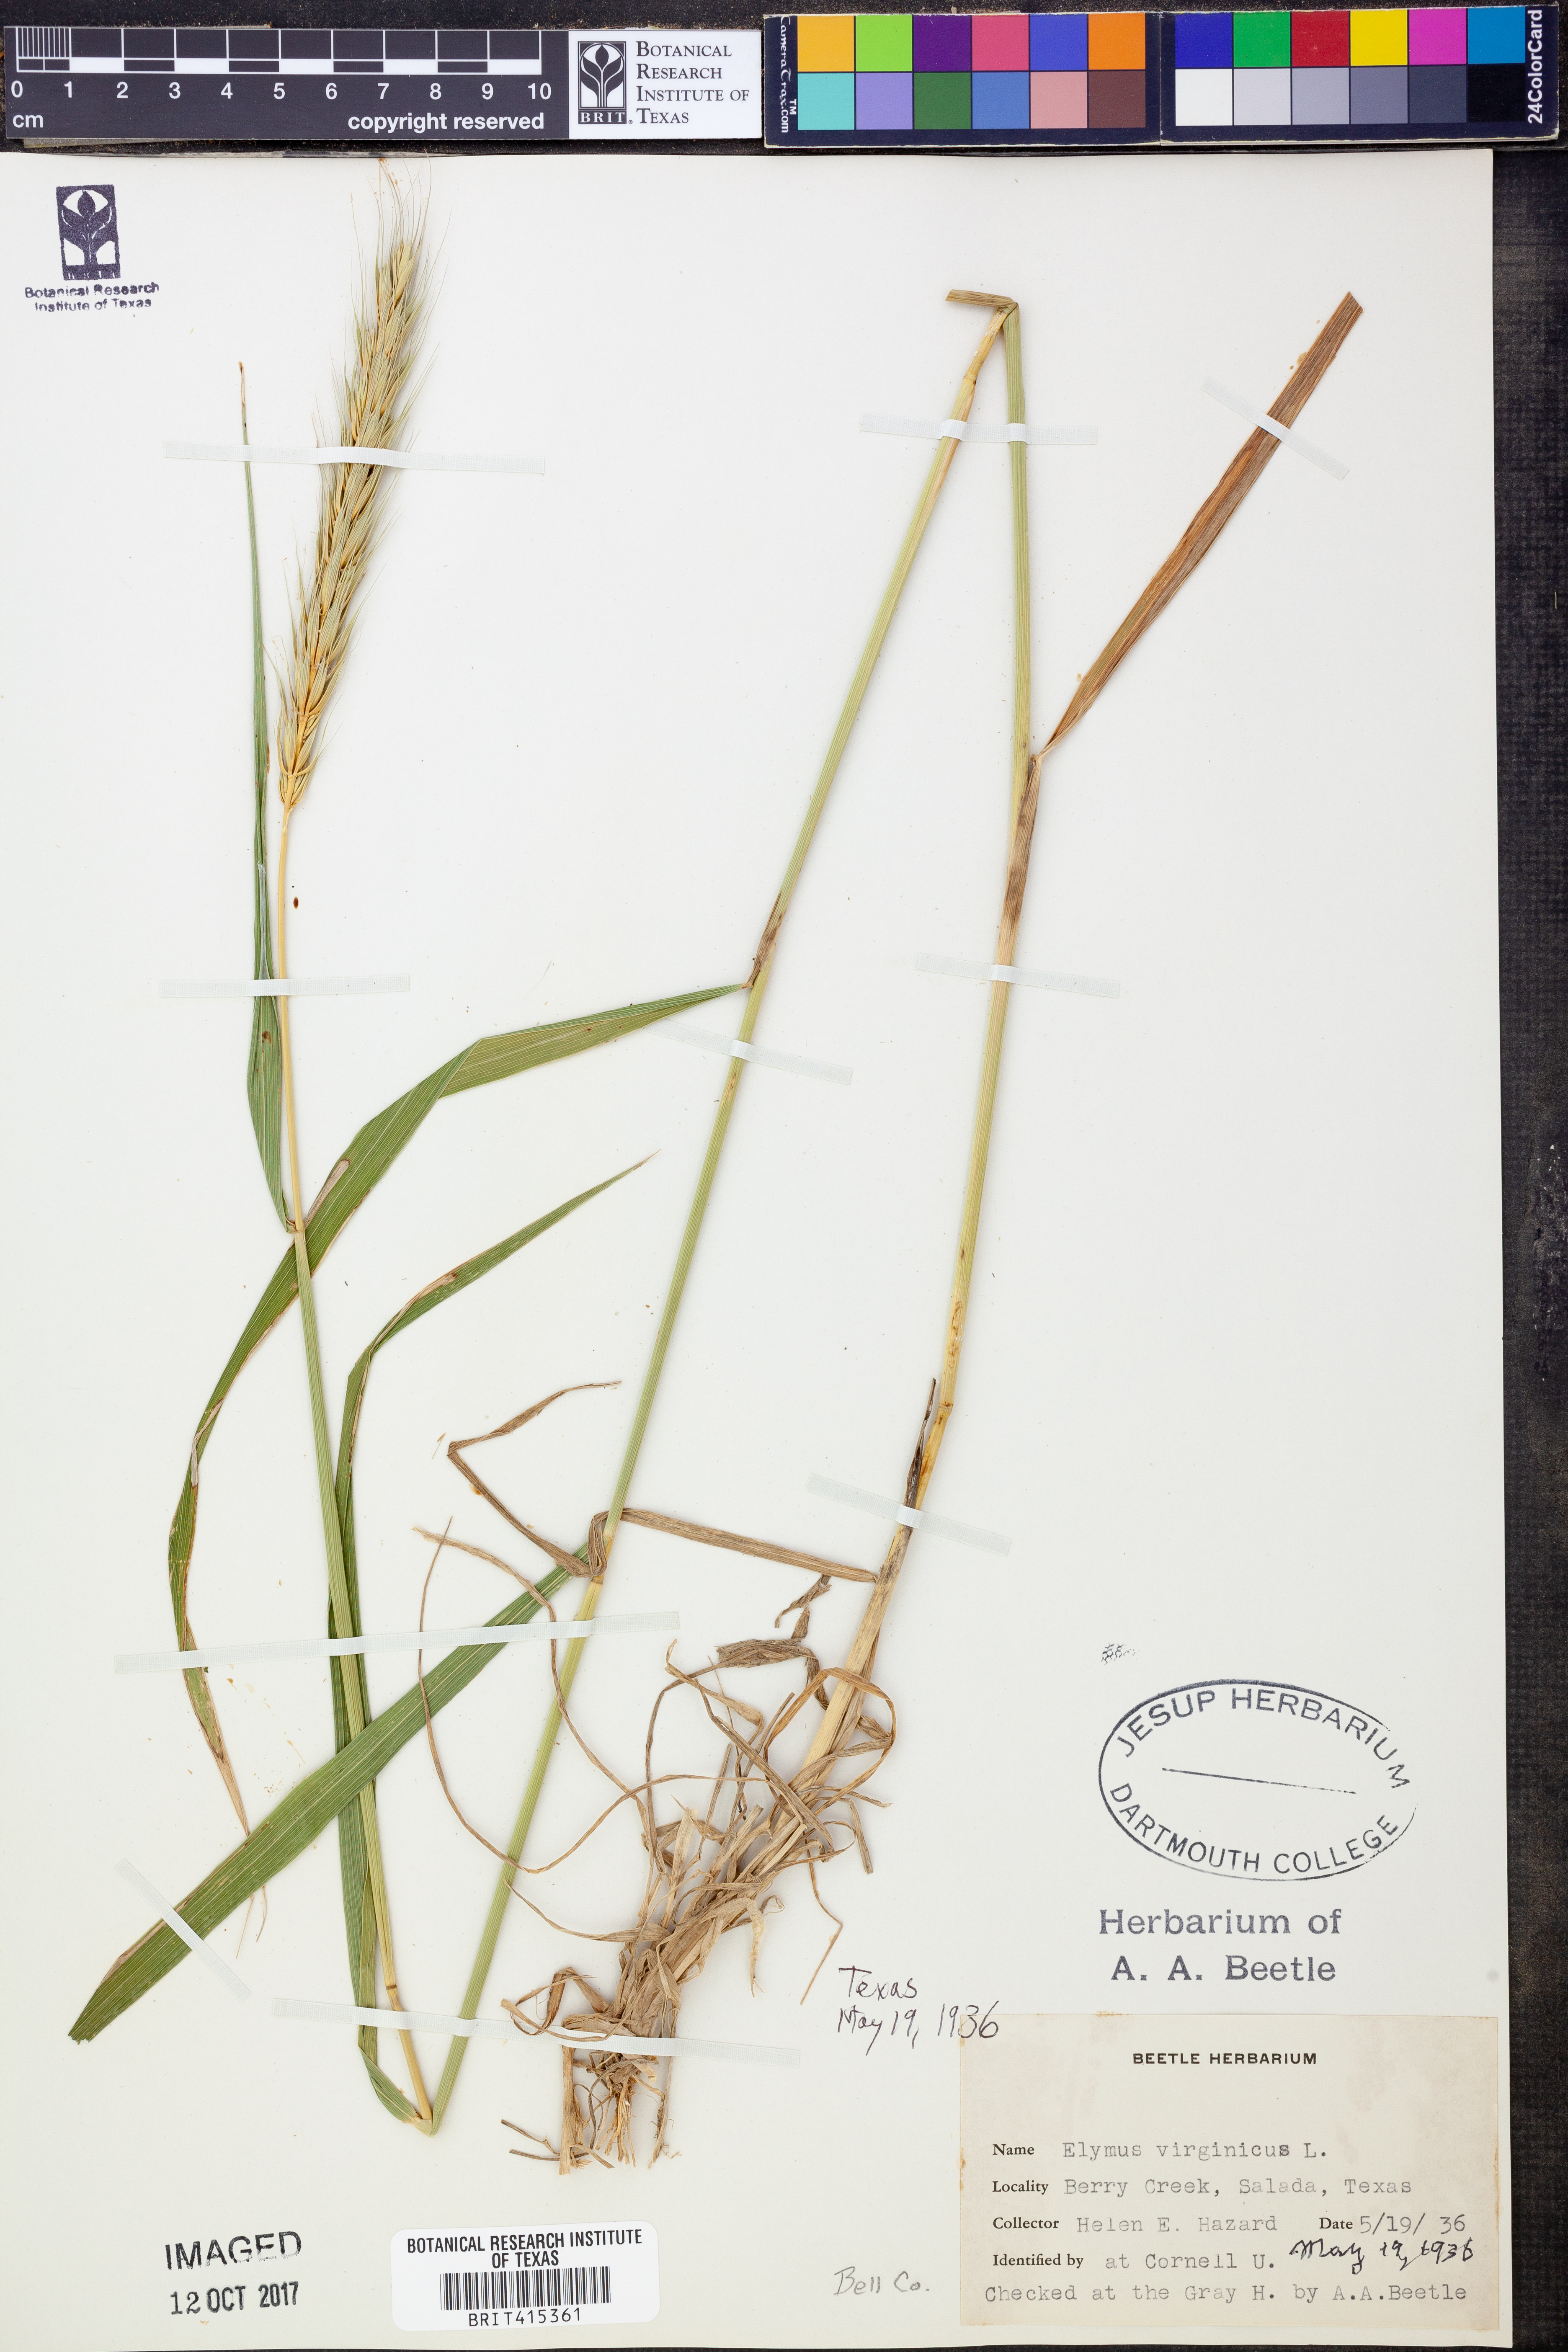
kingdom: Plantae
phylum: Tracheophyta
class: Liliopsida
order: Poales
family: Poaceae
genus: Elymus
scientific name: Elymus virginicus
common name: Common eastern wildrye
